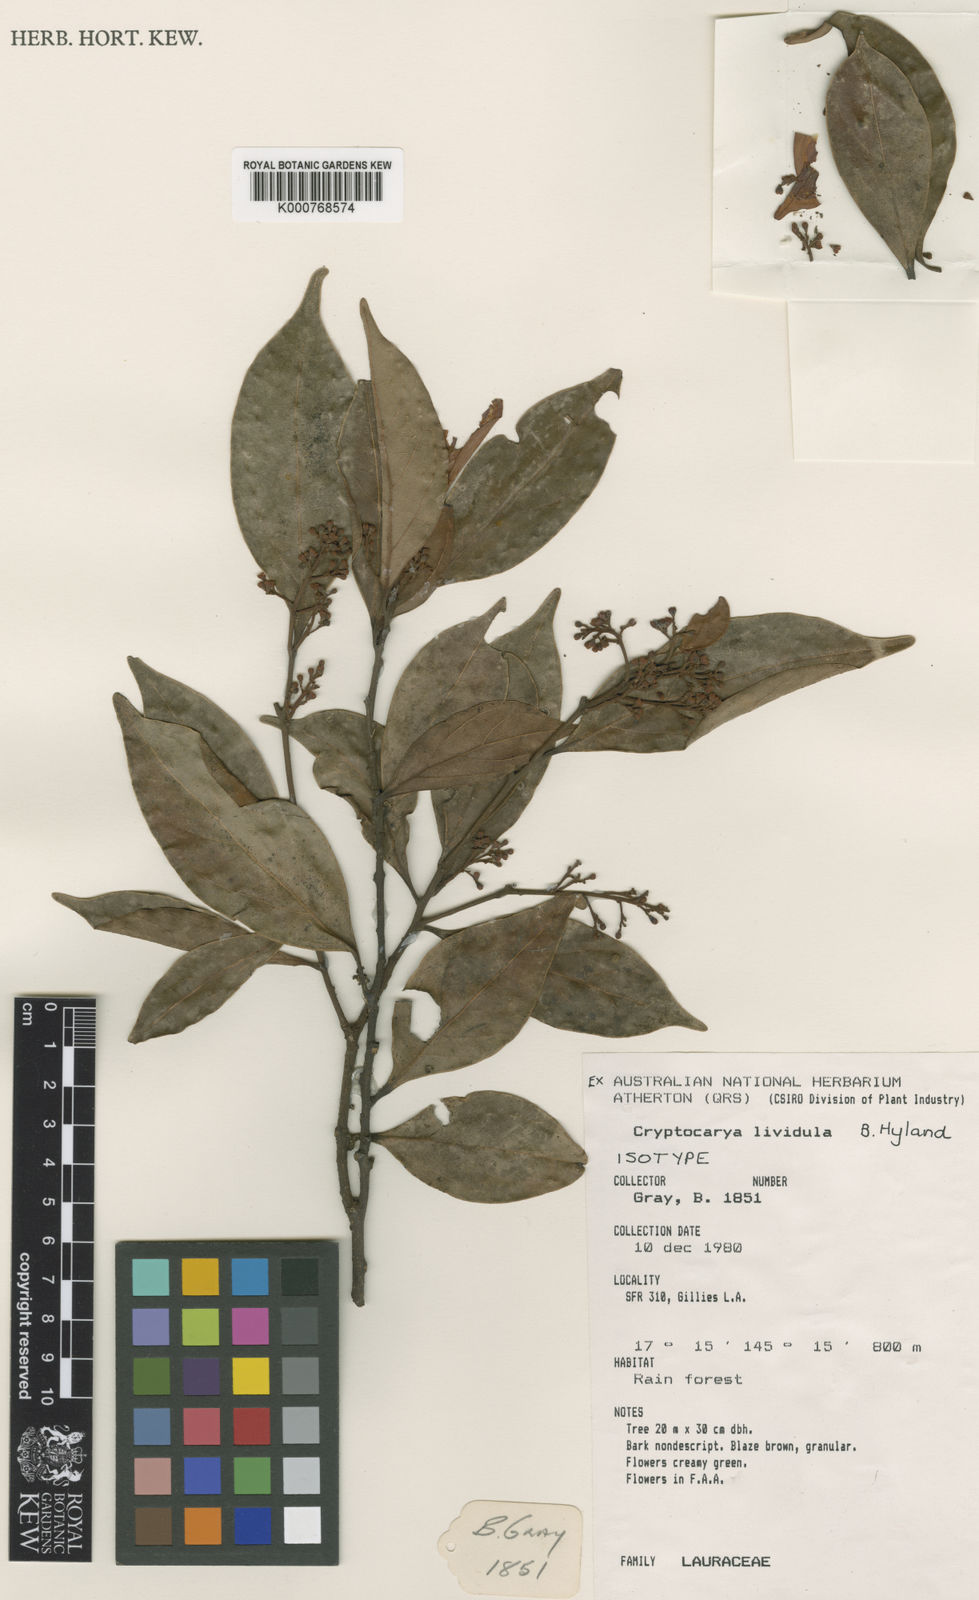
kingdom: Plantae
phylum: Tracheophyta
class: Magnoliopsida
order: Laurales
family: Lauraceae
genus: Cryptocarya
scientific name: Cryptocarya lividula
